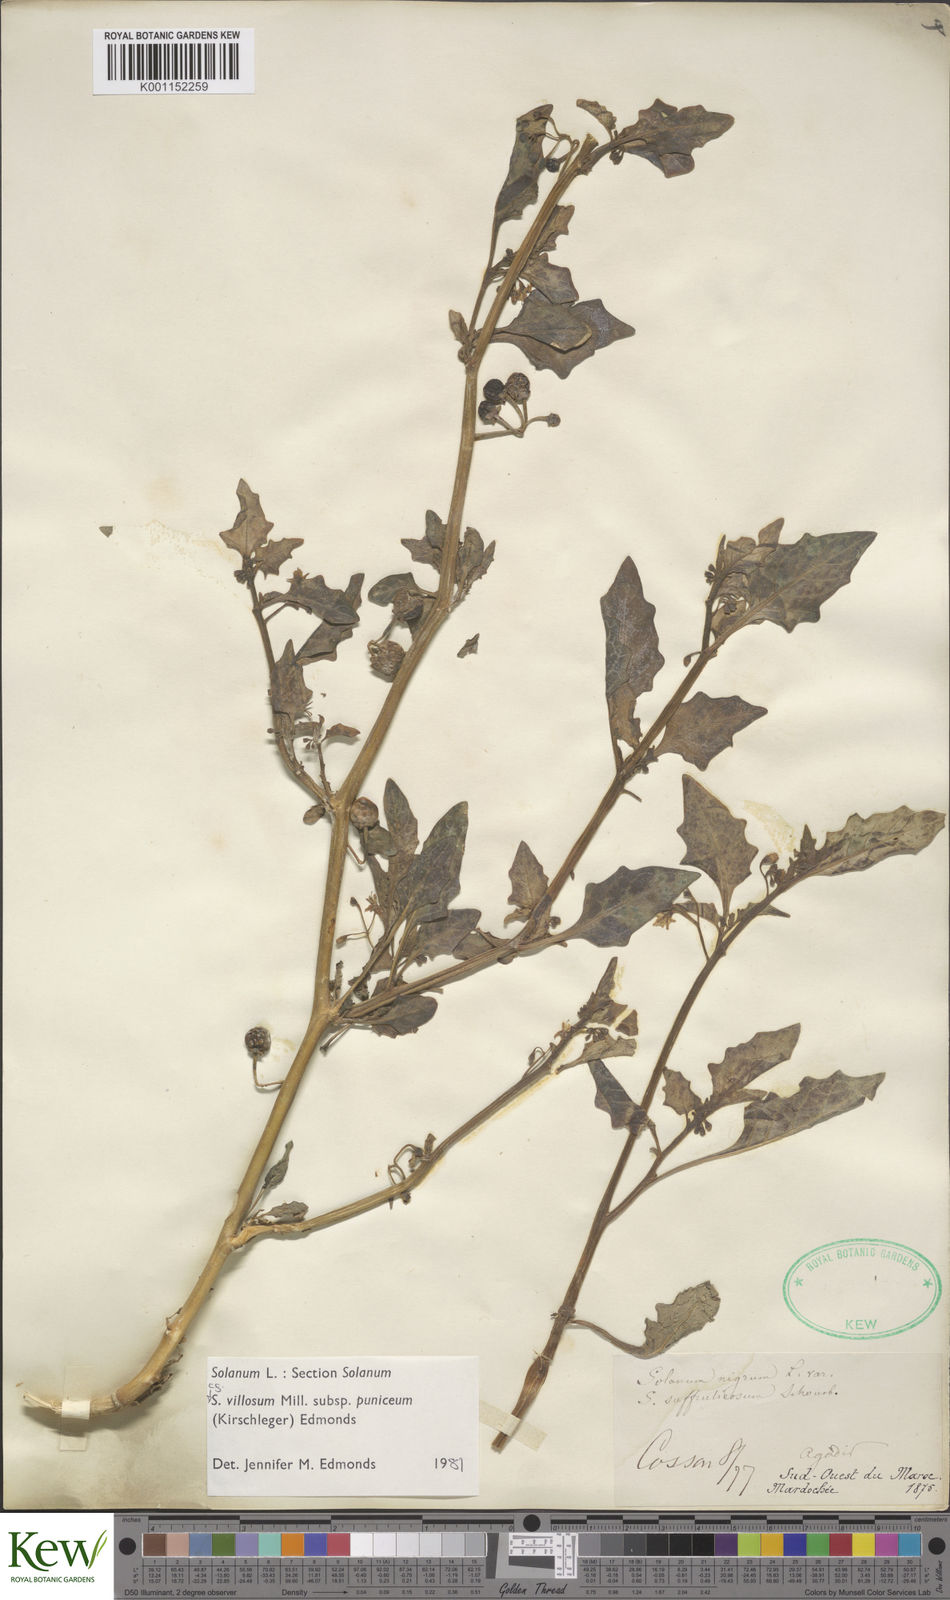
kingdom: Plantae
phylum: Tracheophyta
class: Magnoliopsida
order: Solanales
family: Solanaceae
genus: Solanum
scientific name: Solanum villosum
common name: Red nightshade
